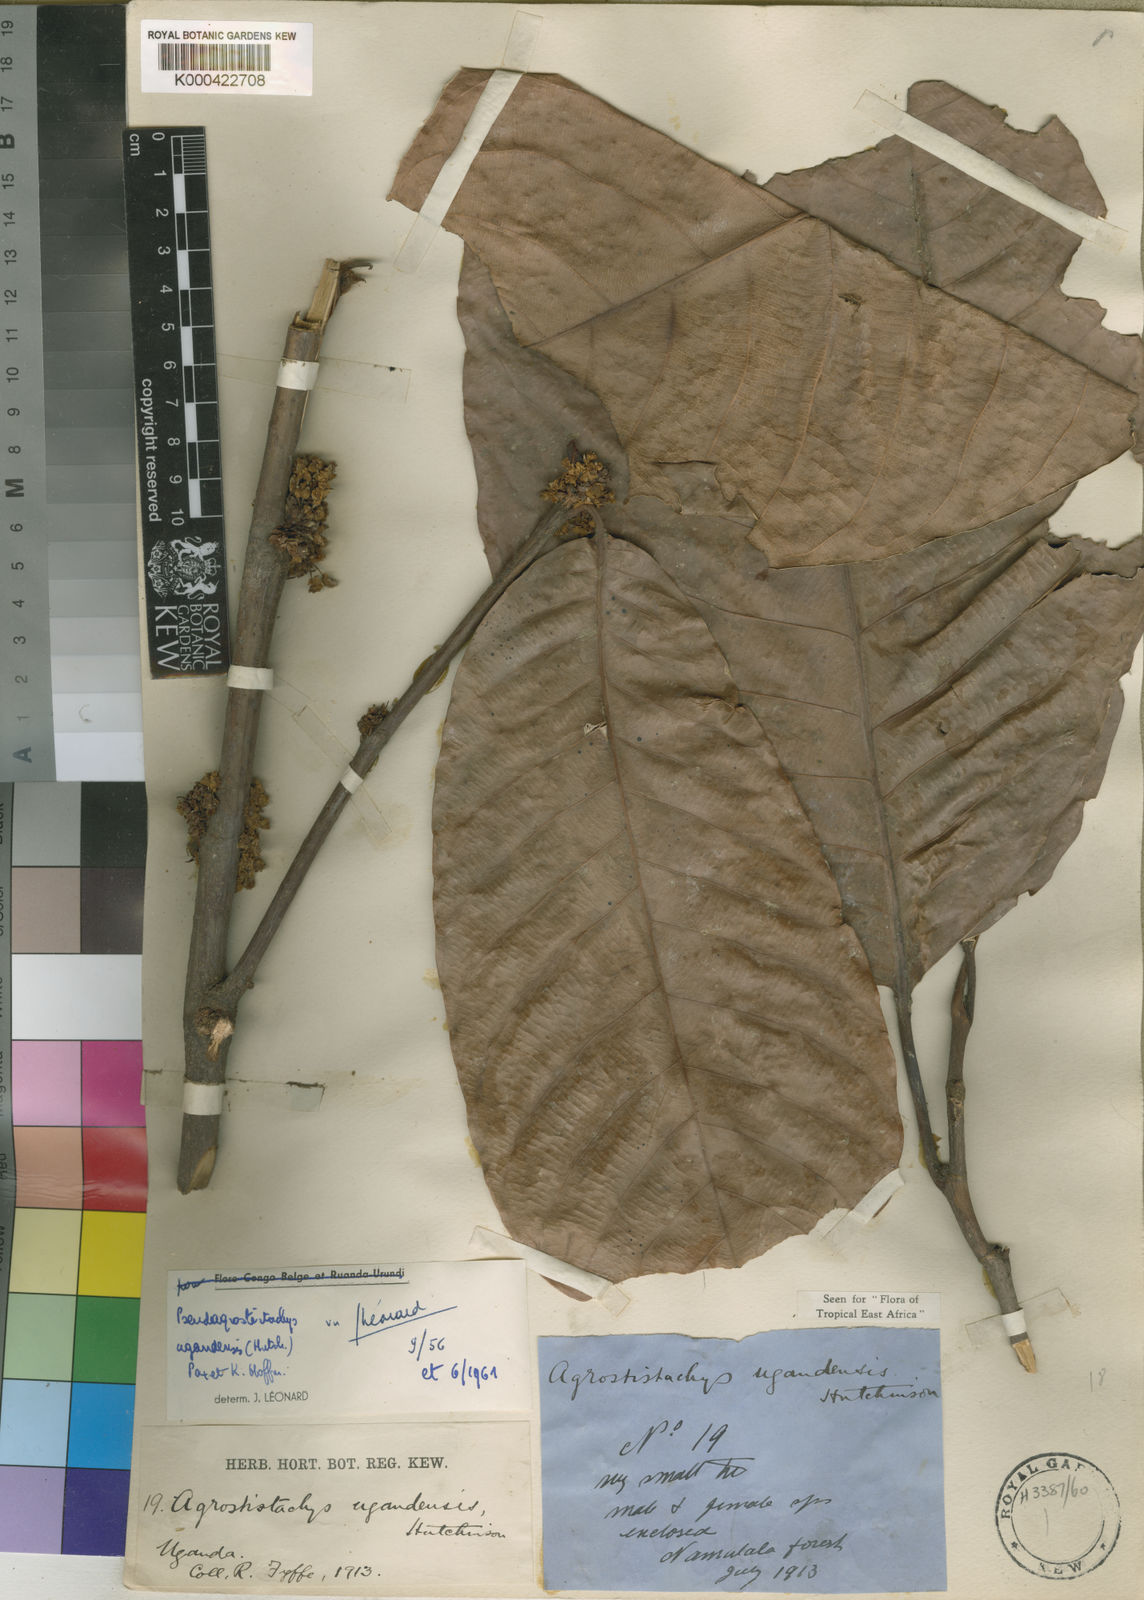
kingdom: Plantae
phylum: Tracheophyta
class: Magnoliopsida
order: Malpighiales
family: Euphorbiaceae
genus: Pseudagrostistachys
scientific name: Pseudagrostistachys ugandensis
